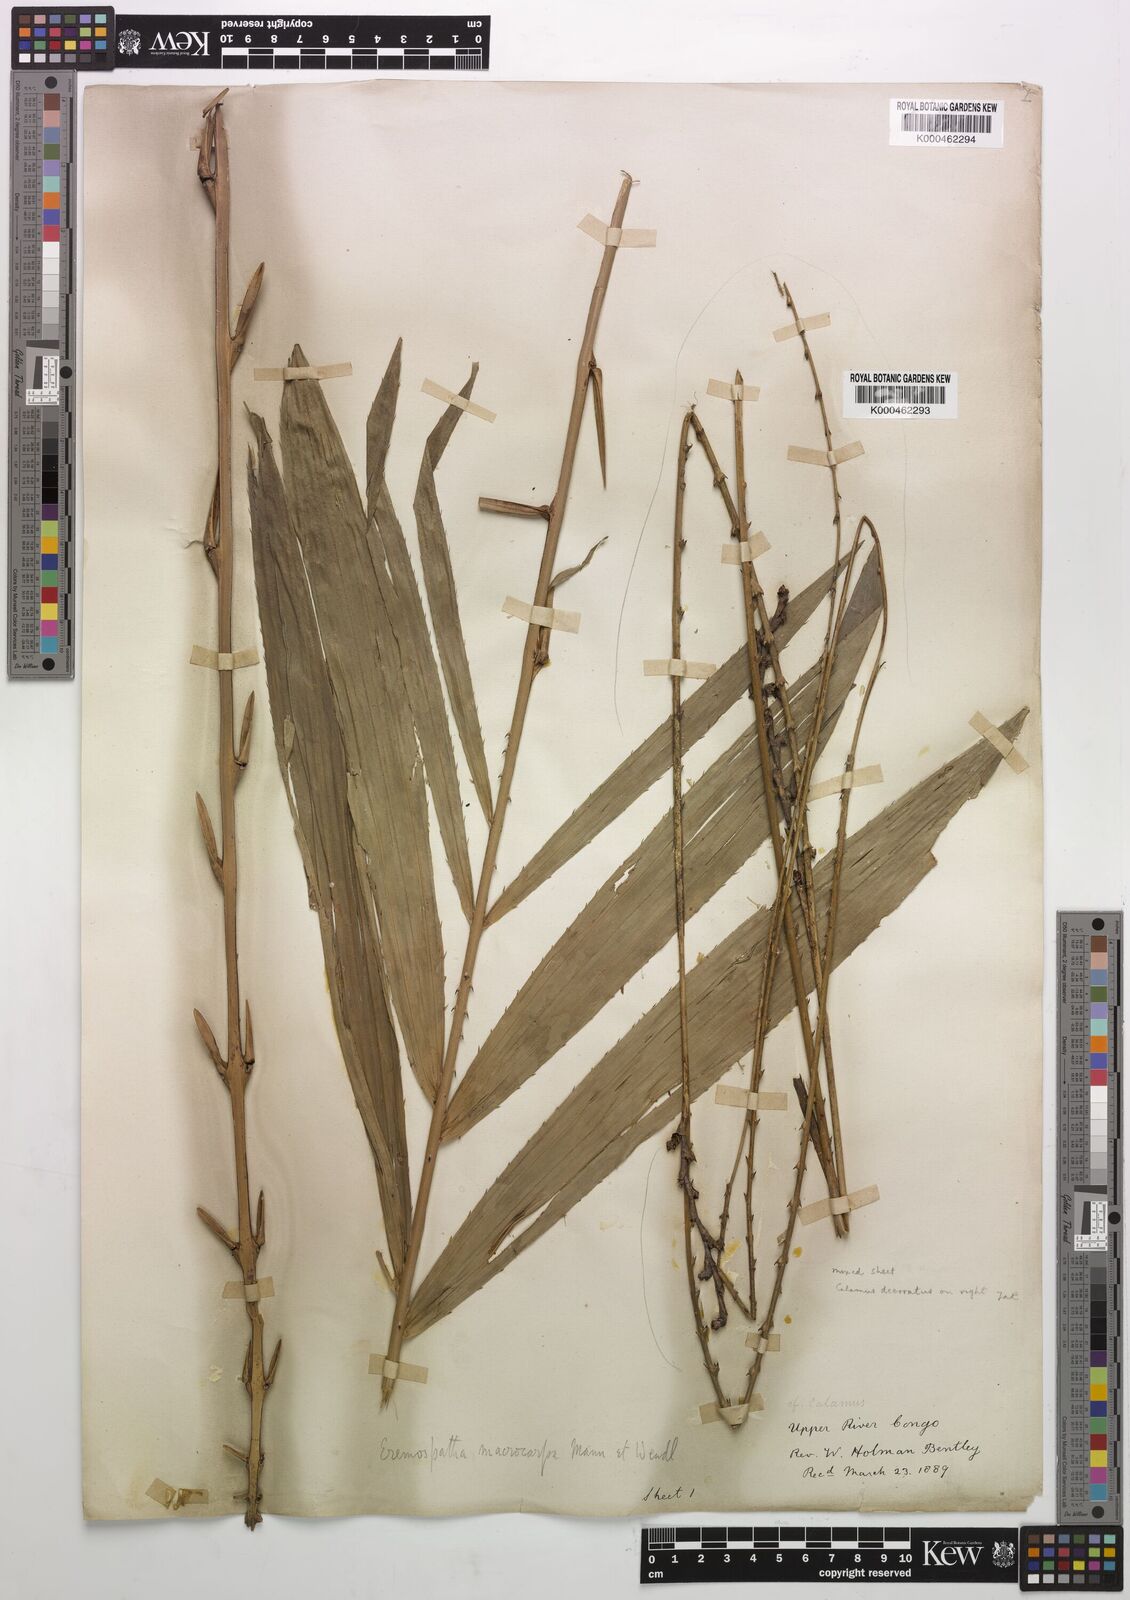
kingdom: Plantae
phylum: Tracheophyta
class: Liliopsida
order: Arecales
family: Arecaceae
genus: Calamus
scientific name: Calamus deerratus
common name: Rattan
